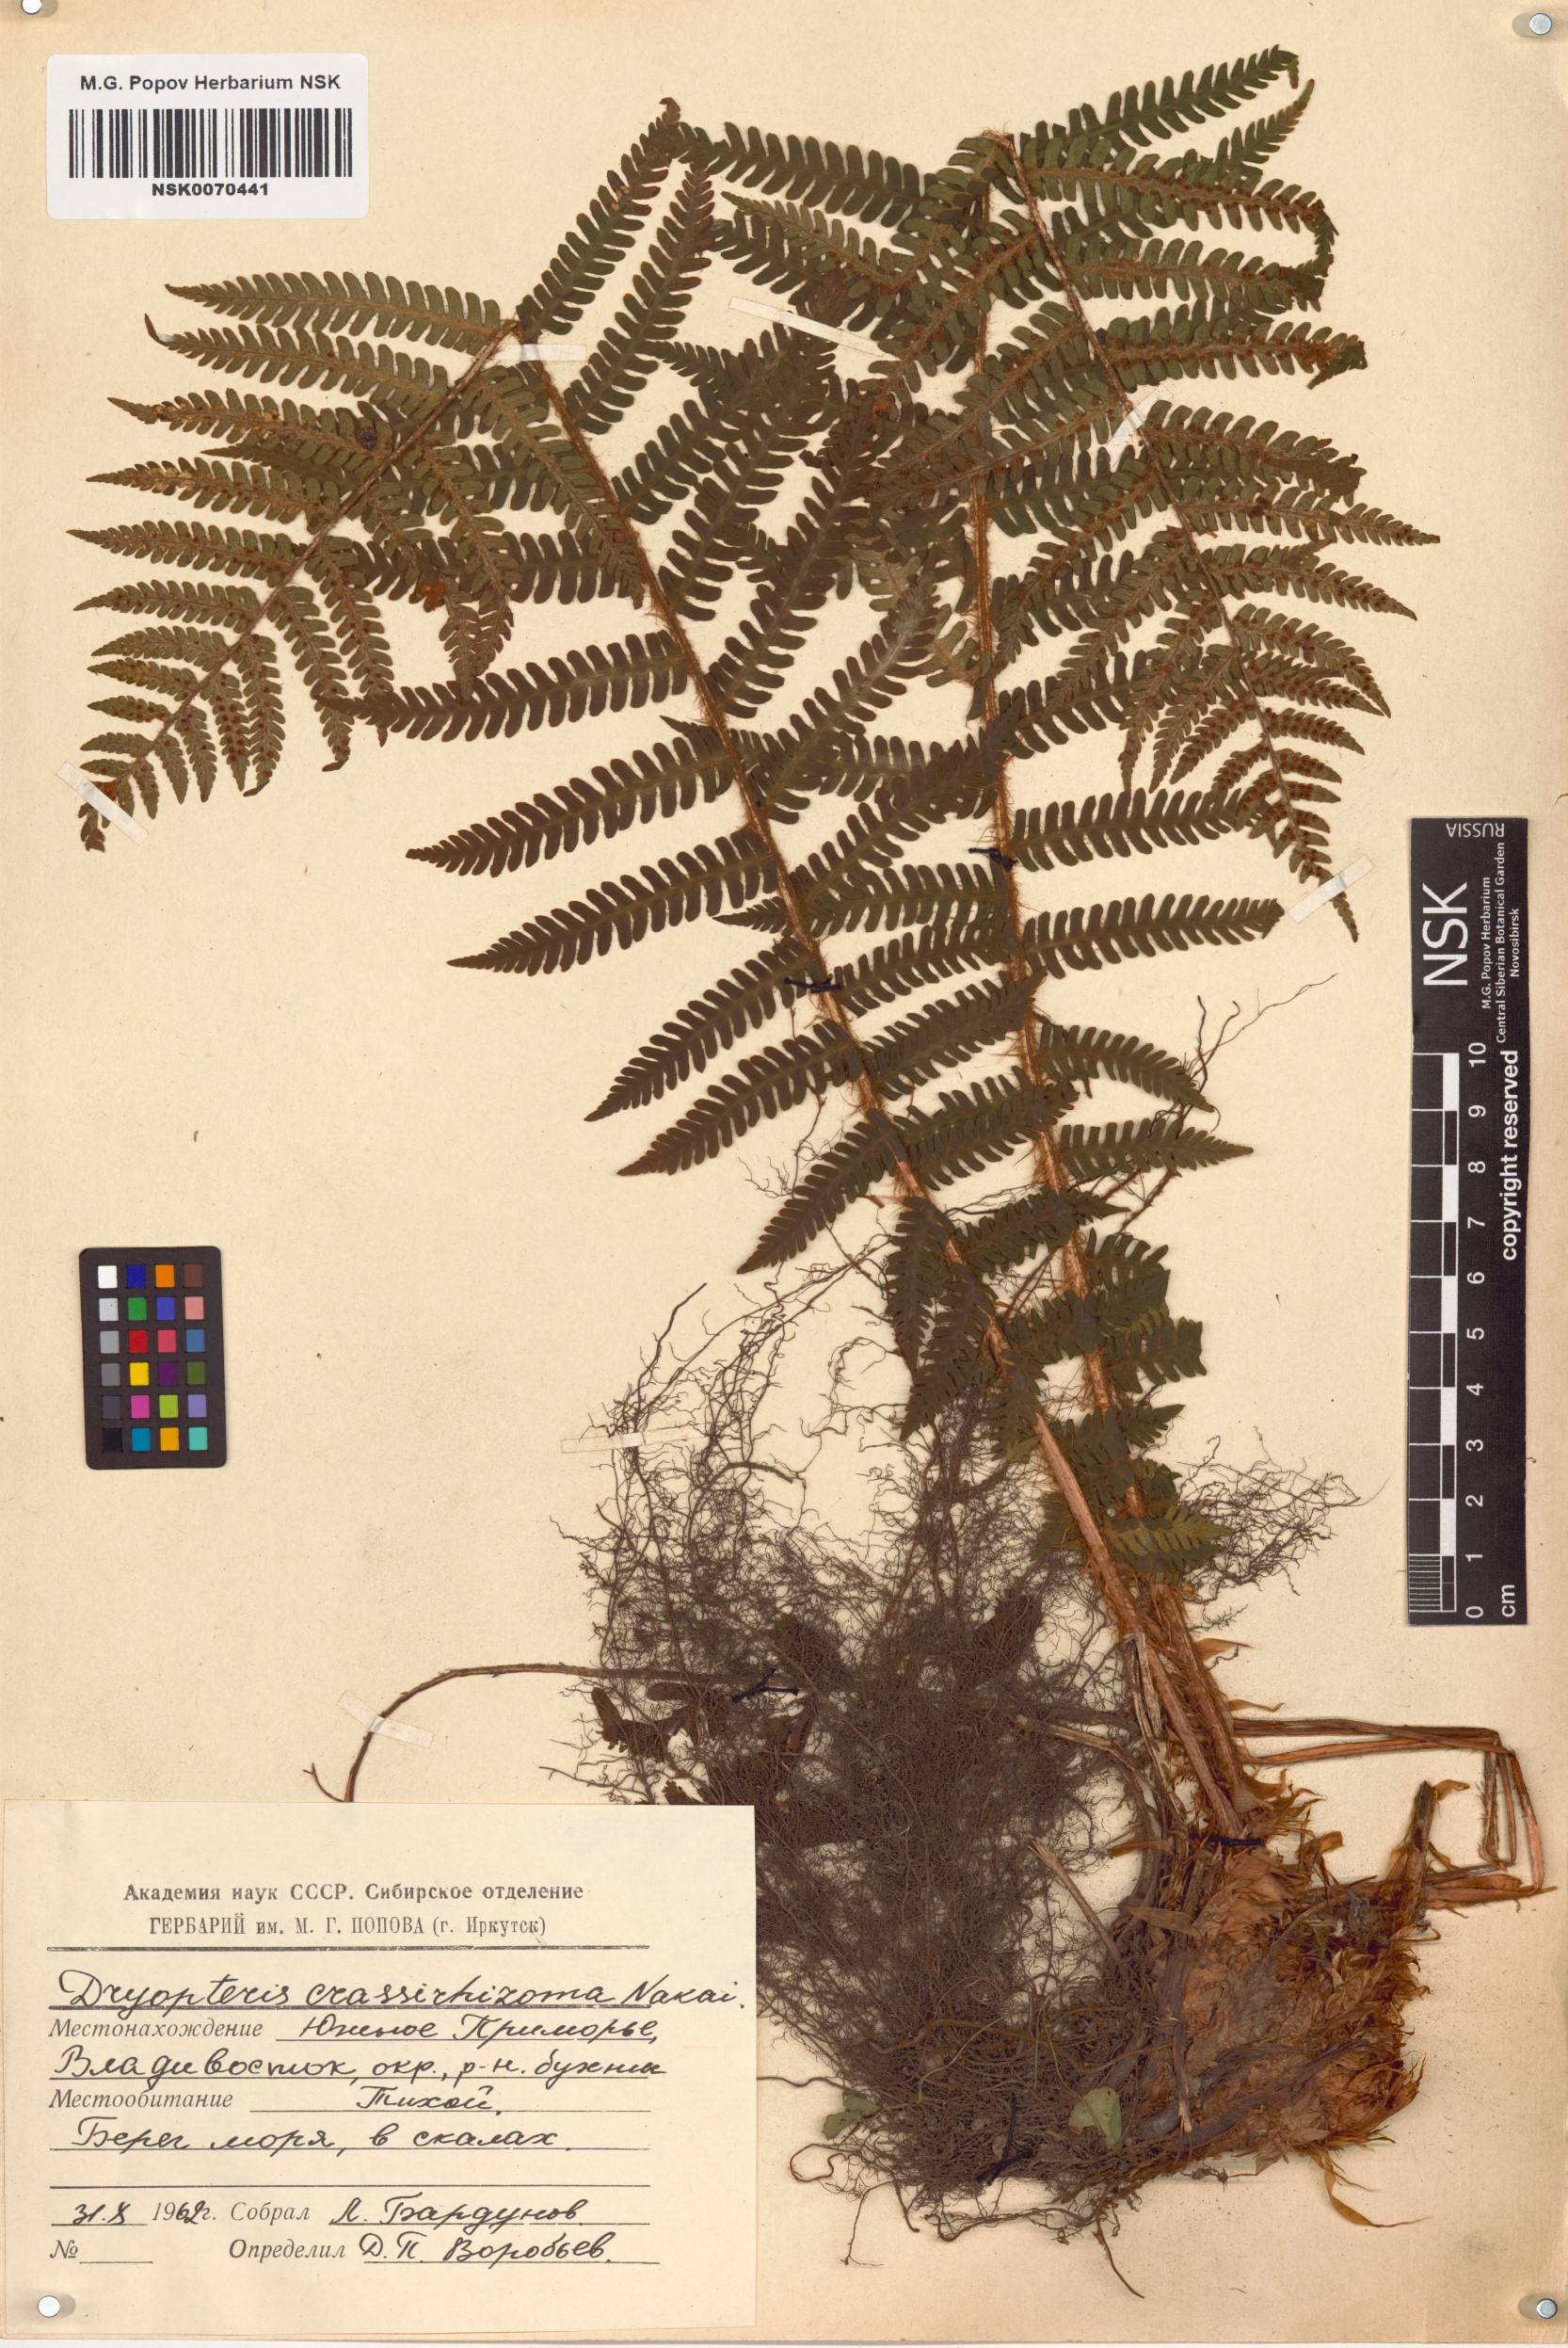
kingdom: Plantae
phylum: Tracheophyta
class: Polypodiopsida
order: Polypodiales
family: Dryopteridaceae
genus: Dryopteris
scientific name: Dryopteris crassirhizoma
